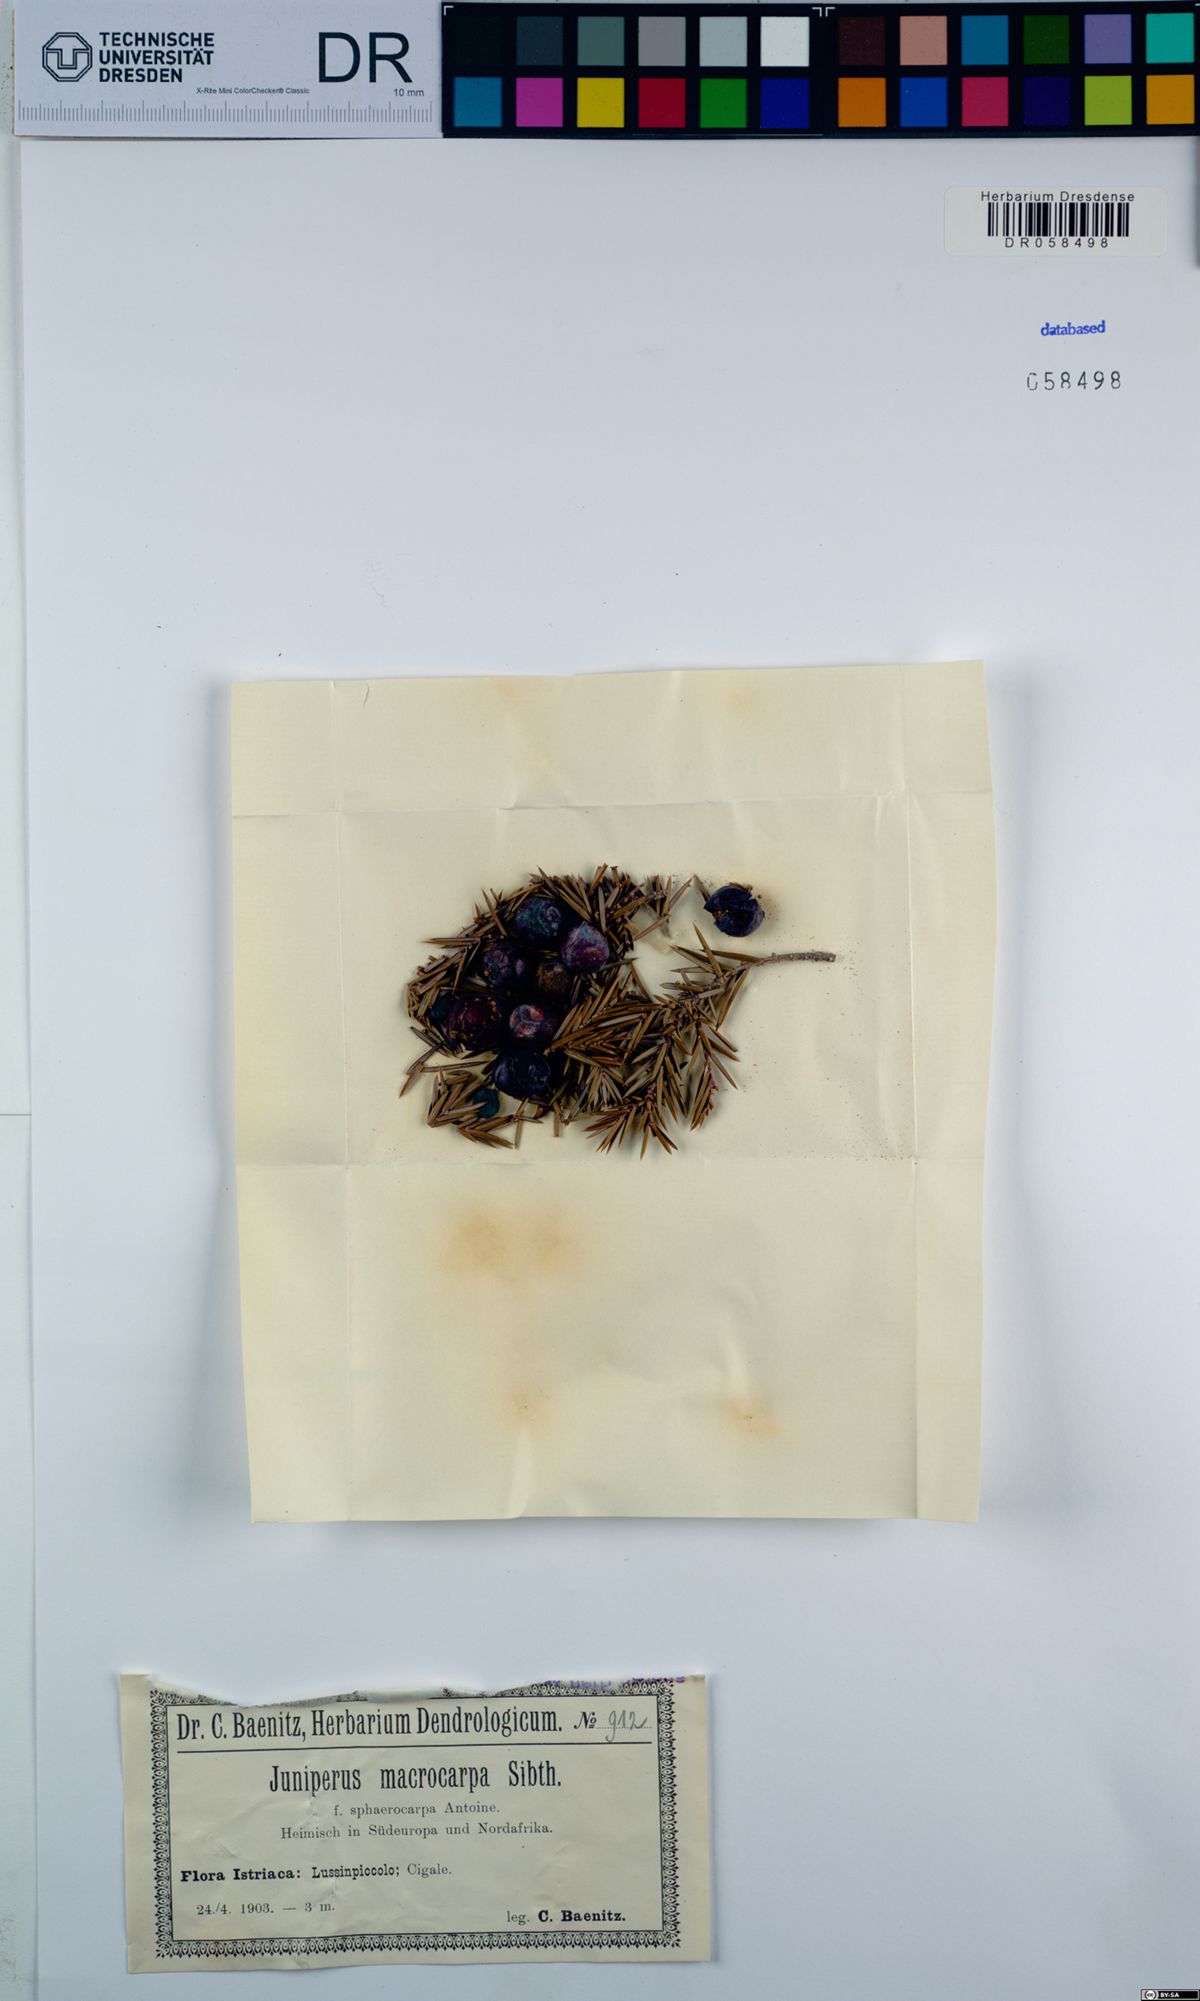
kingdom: Plantae
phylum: Tracheophyta
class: Pinopsida
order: Pinales
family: Cupressaceae
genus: Juniperus
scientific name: Juniperus oxycedrus
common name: Prickly juniper
